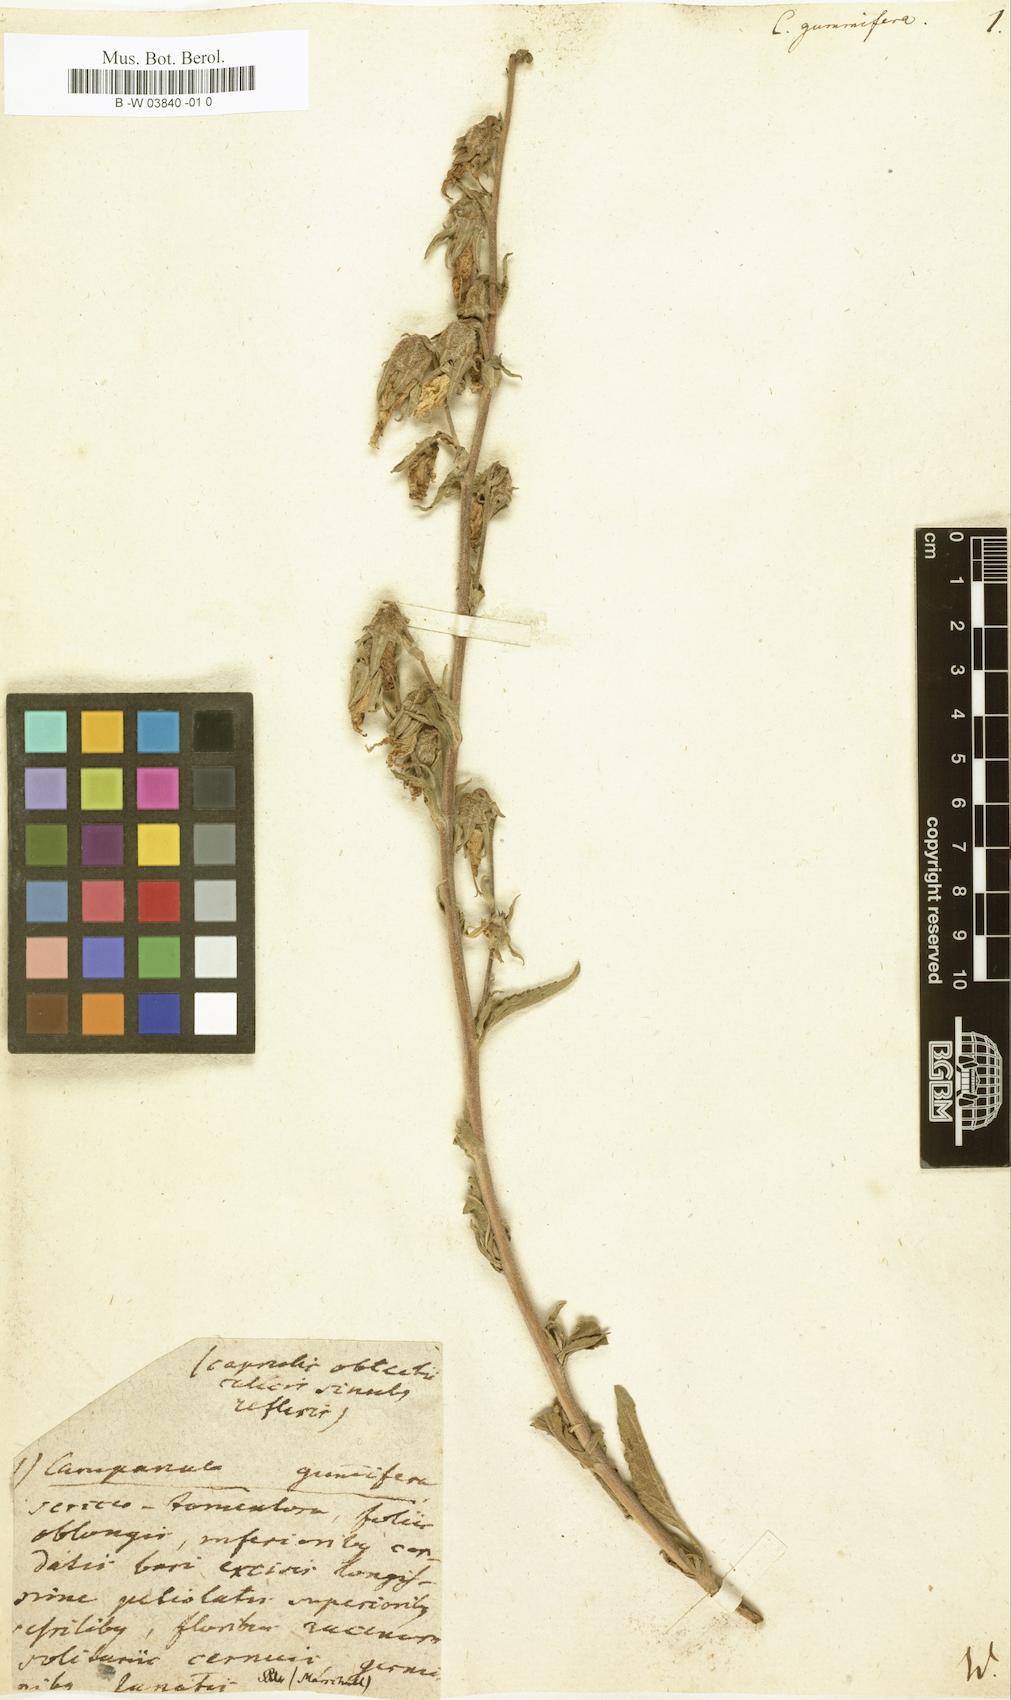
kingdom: Plantae
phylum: Tracheophyta
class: Magnoliopsida
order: Asterales
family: Campanulaceae
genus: Campanula
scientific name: Campanula sarmatica
